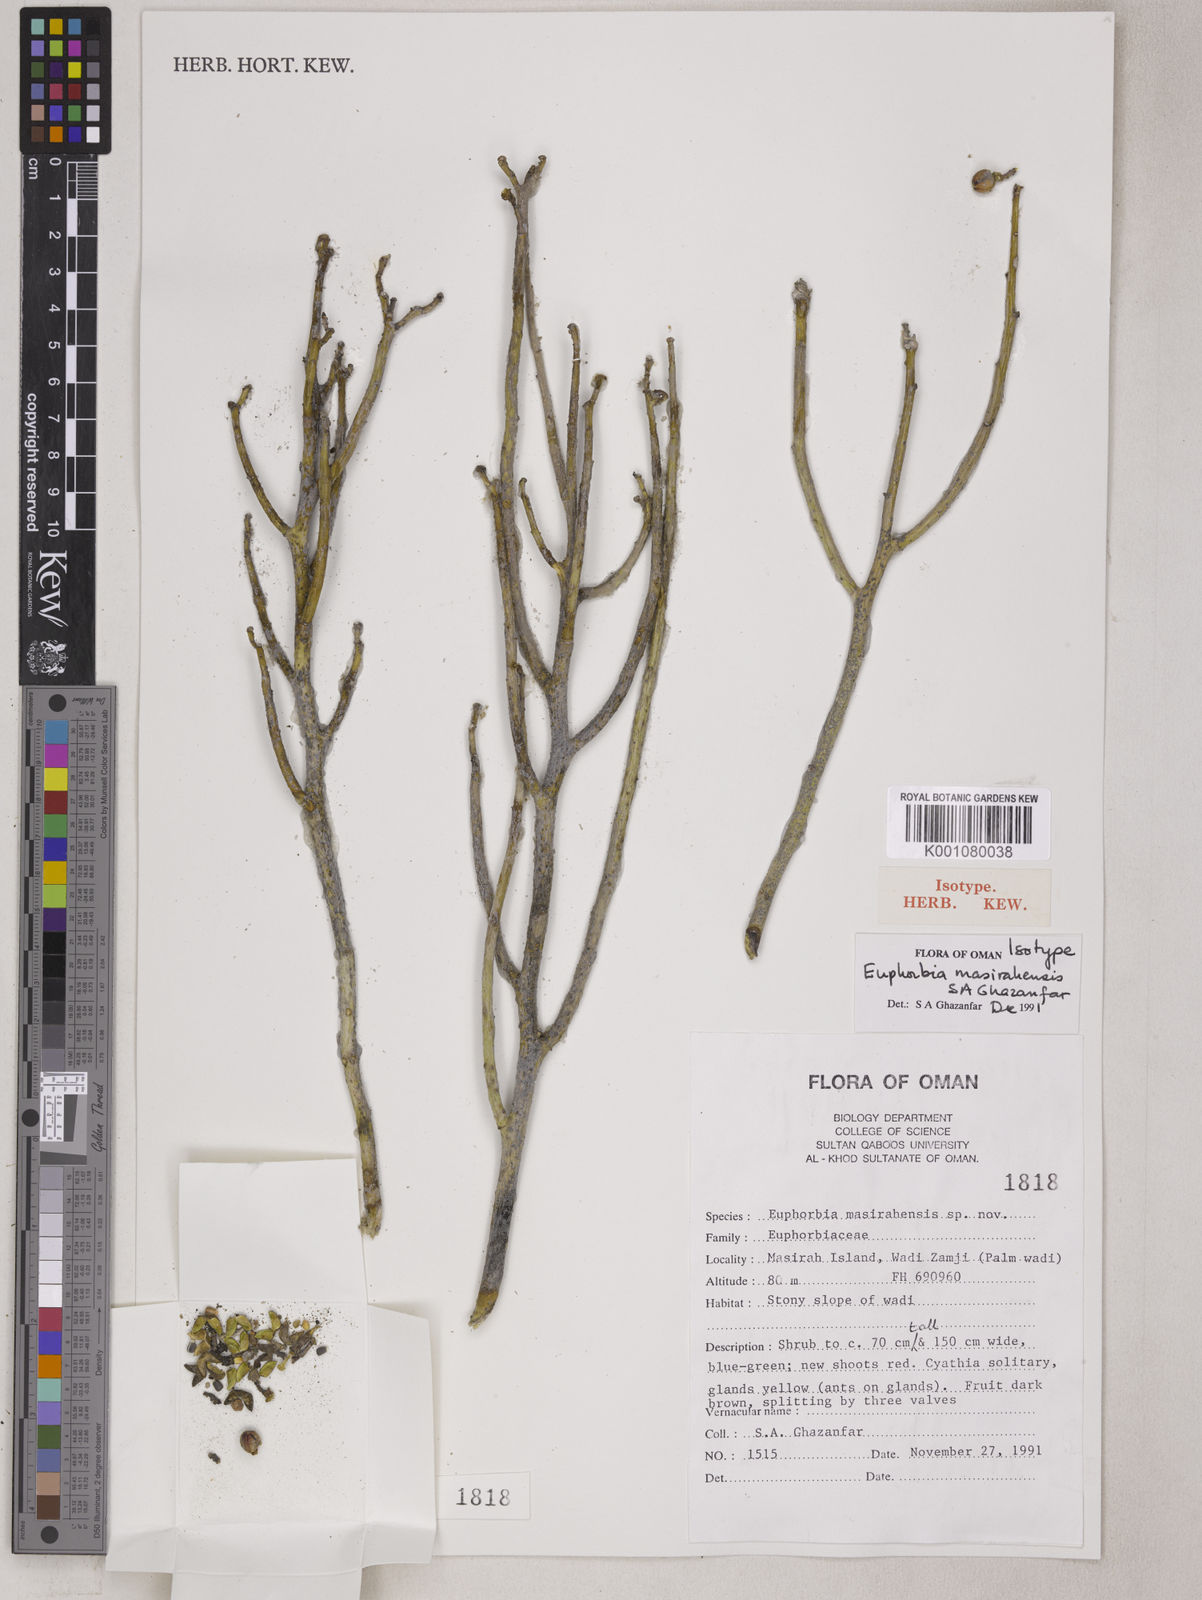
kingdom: Plantae
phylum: Tracheophyta
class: Magnoliopsida
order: Malpighiales
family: Euphorbiaceae
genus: Euphorbia
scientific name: Euphorbia larica
